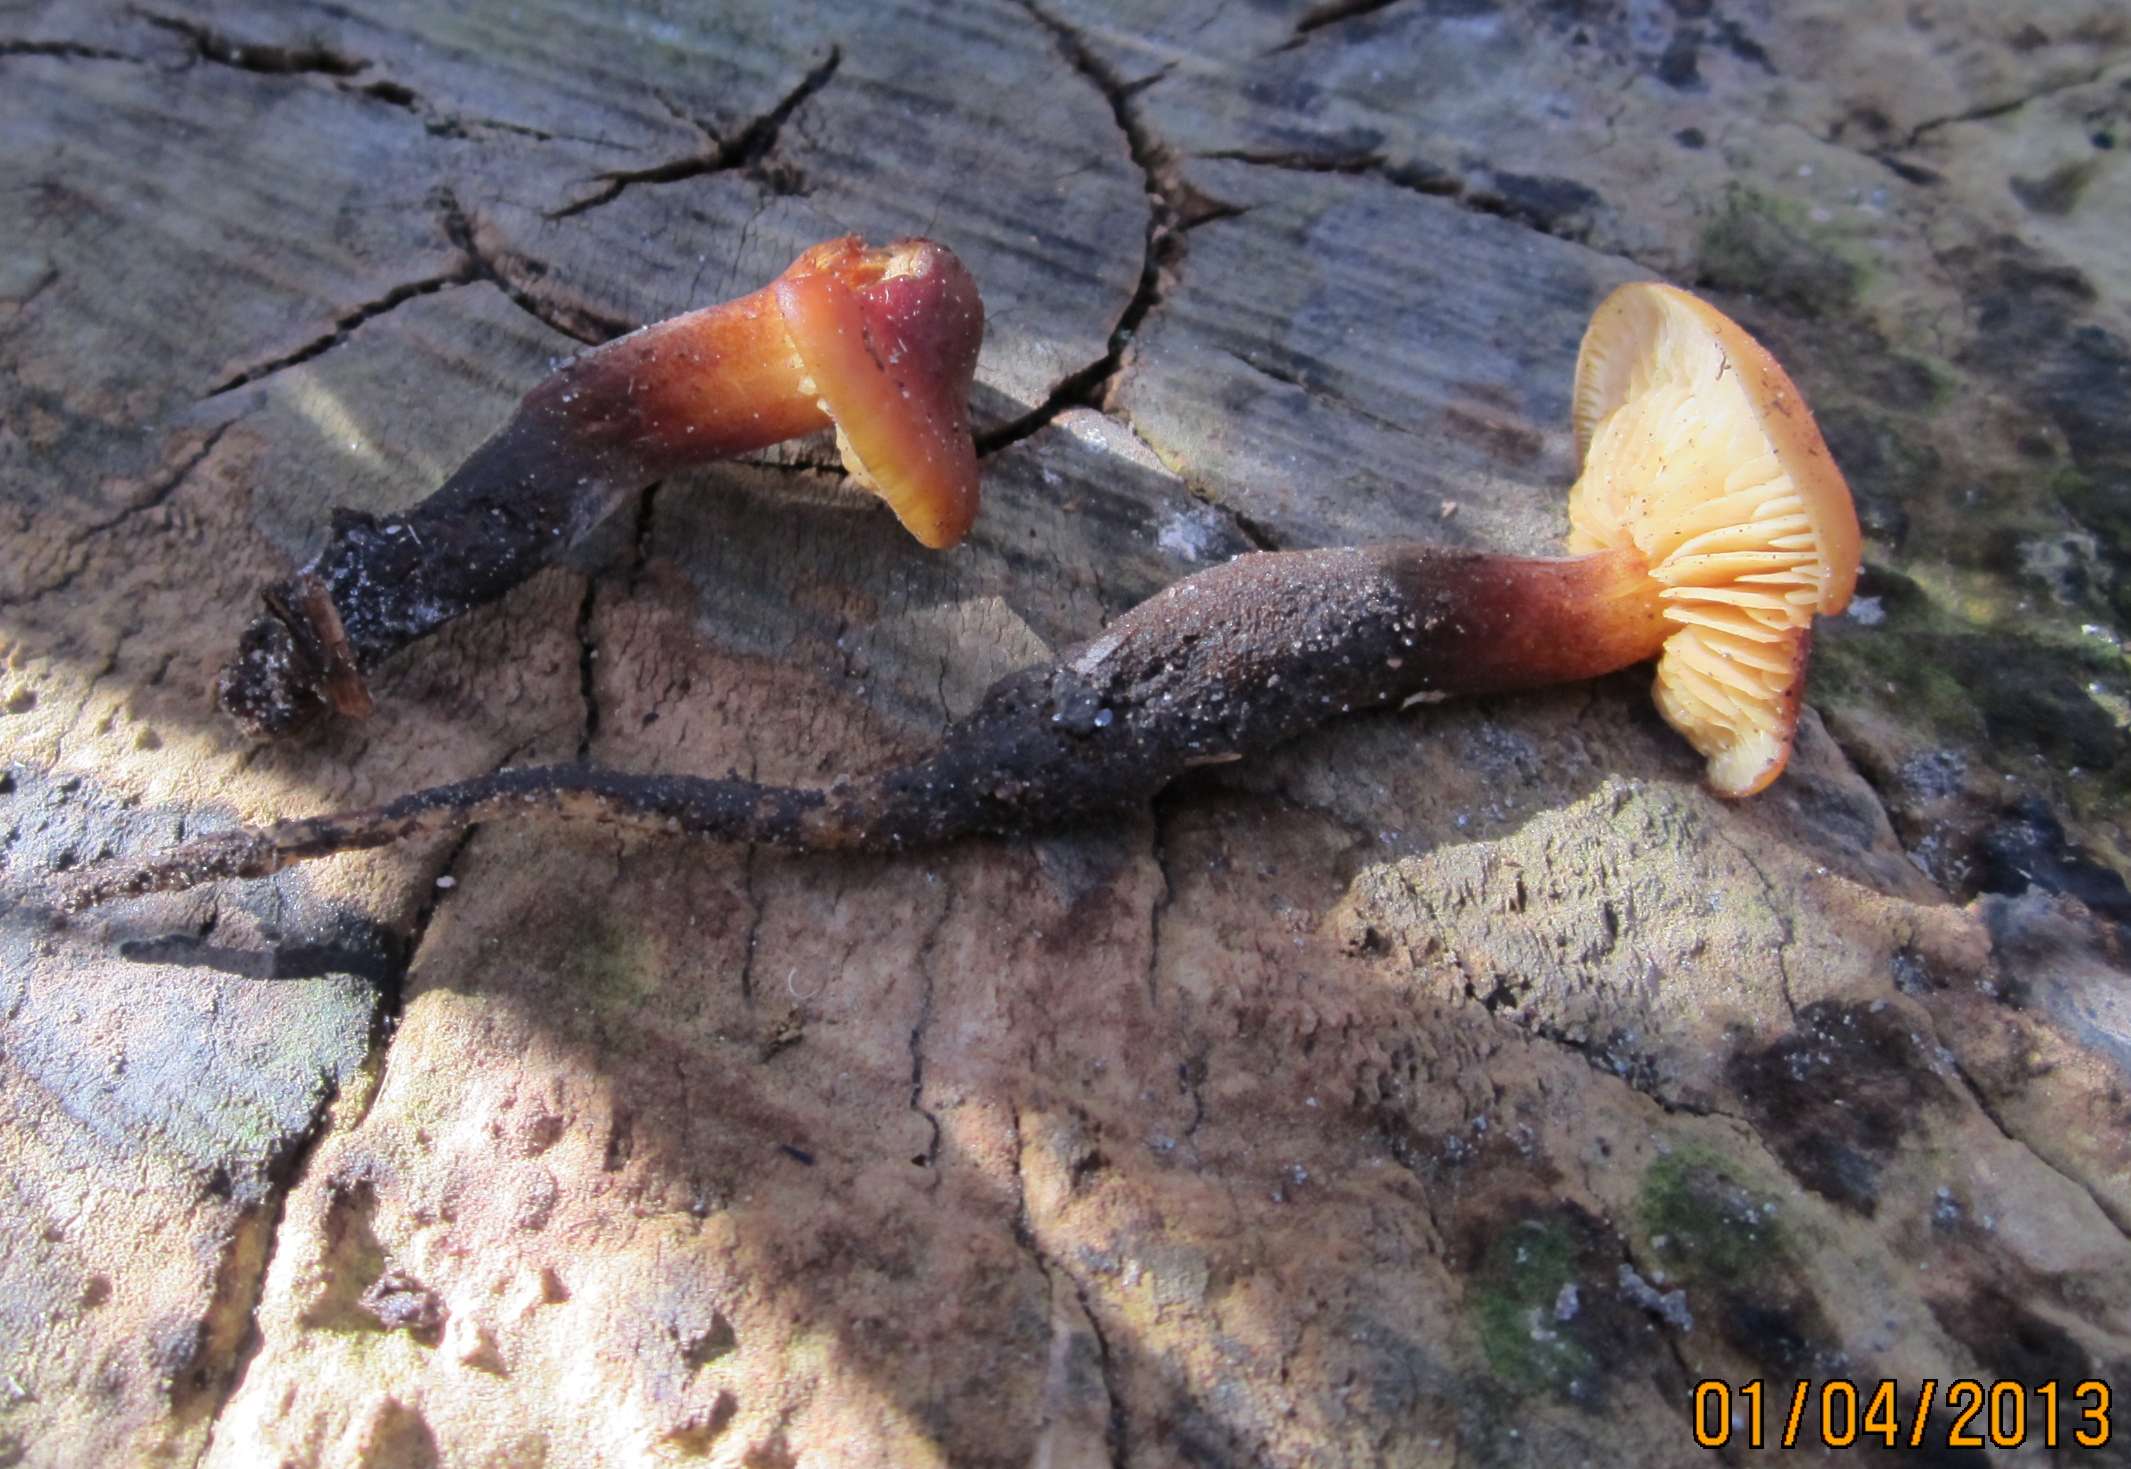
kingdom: Fungi
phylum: Basidiomycota
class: Agaricomycetes
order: Agaricales
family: Physalacriaceae
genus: Flammulina
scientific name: Flammulina velutipes
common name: gul fløjlsfod
